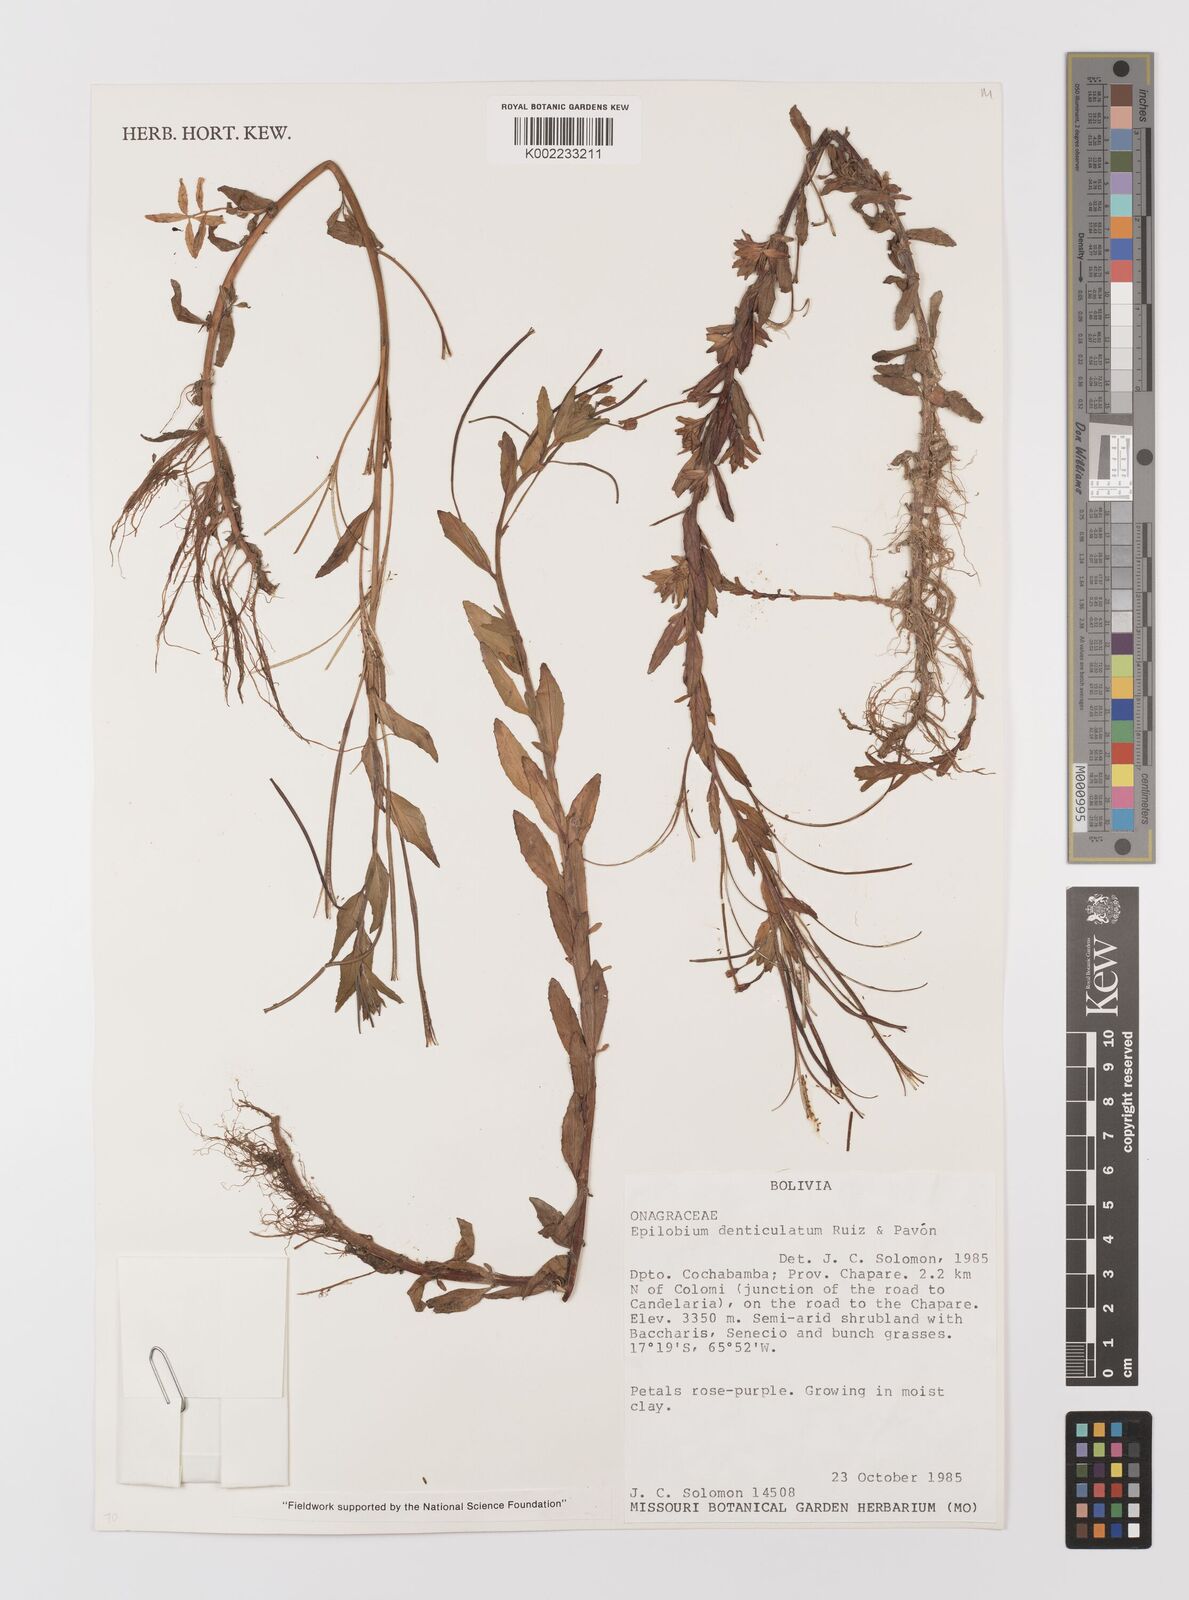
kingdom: Plantae
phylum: Tracheophyta
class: Magnoliopsida
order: Myrtales
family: Onagraceae
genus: Epilobium
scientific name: Epilobium denticulatum
